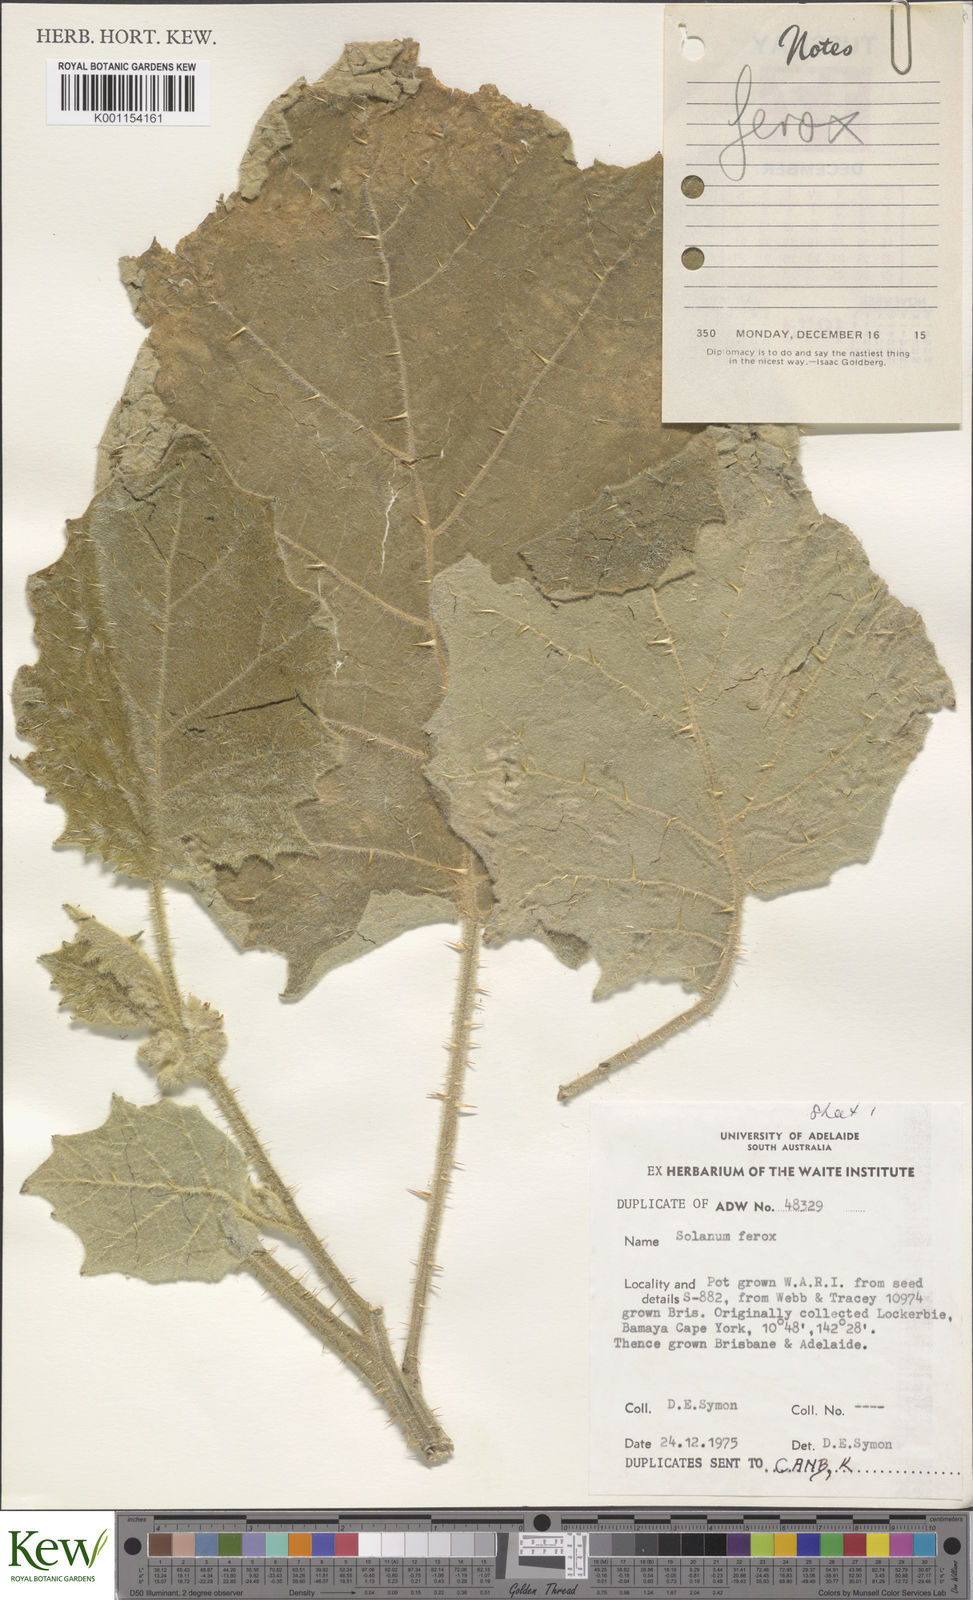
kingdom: Plantae
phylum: Tracheophyta
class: Magnoliopsida
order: Solanales
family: Solanaceae
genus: Solanum
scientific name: Solanum
